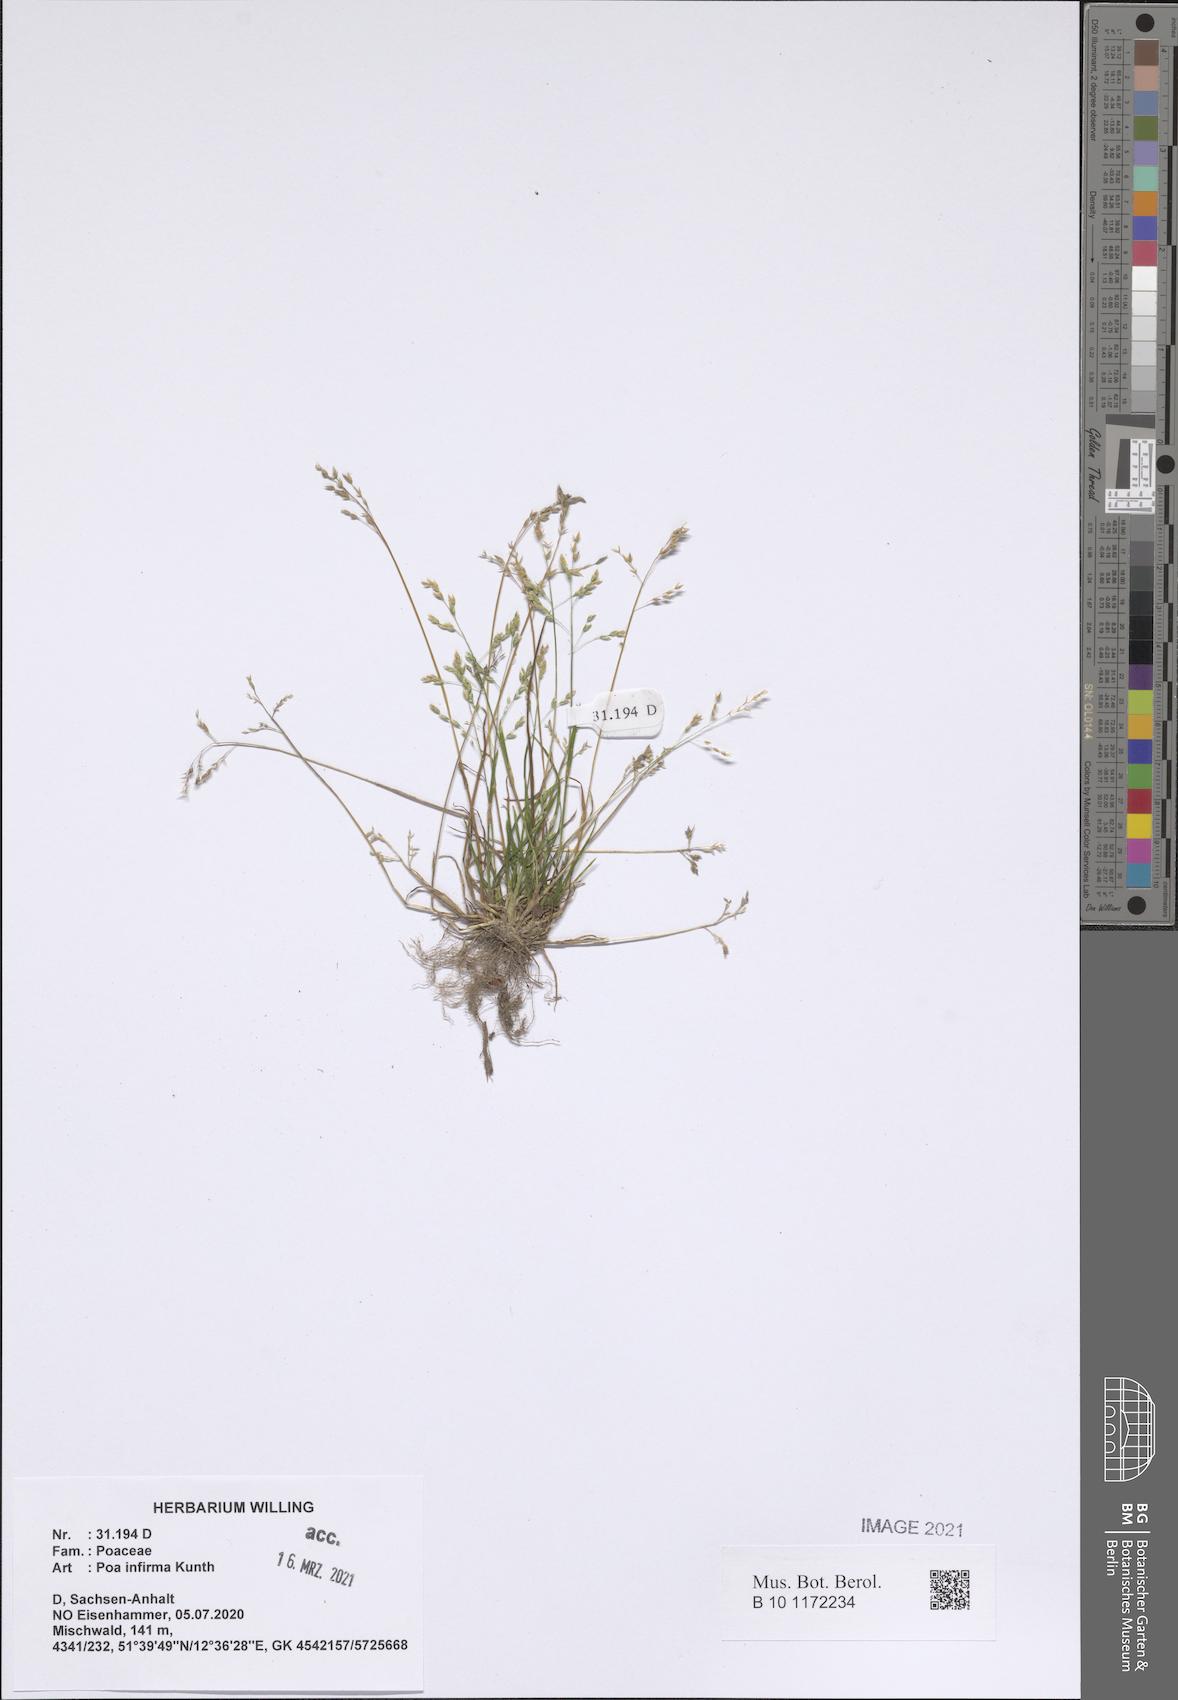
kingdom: Plantae
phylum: Tracheophyta
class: Liliopsida
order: Poales
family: Poaceae
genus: Poa
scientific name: Poa infirma
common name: Weak bluegrass
